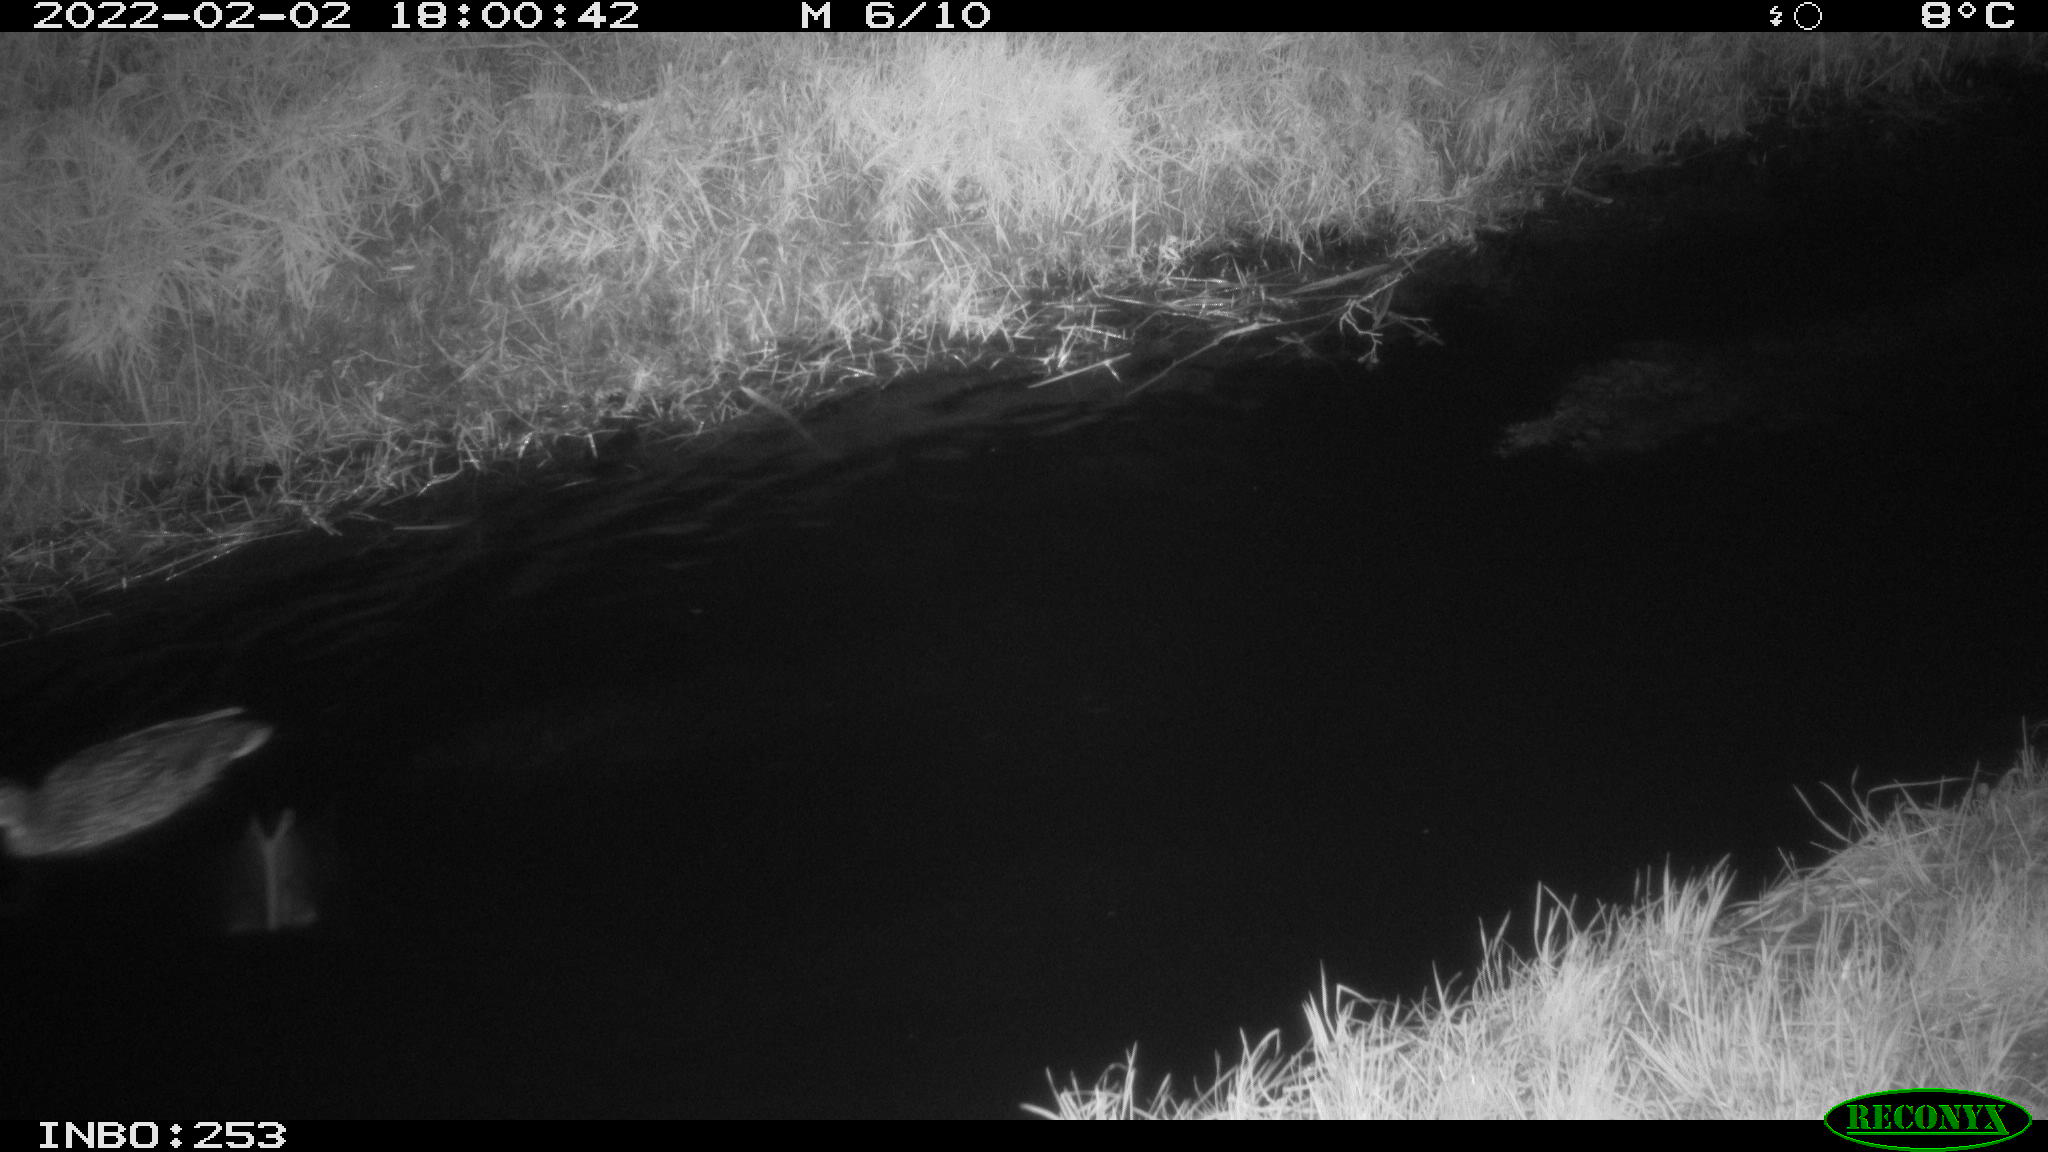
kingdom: Animalia
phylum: Chordata
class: Aves
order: Anseriformes
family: Anatidae
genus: Anas
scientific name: Anas
